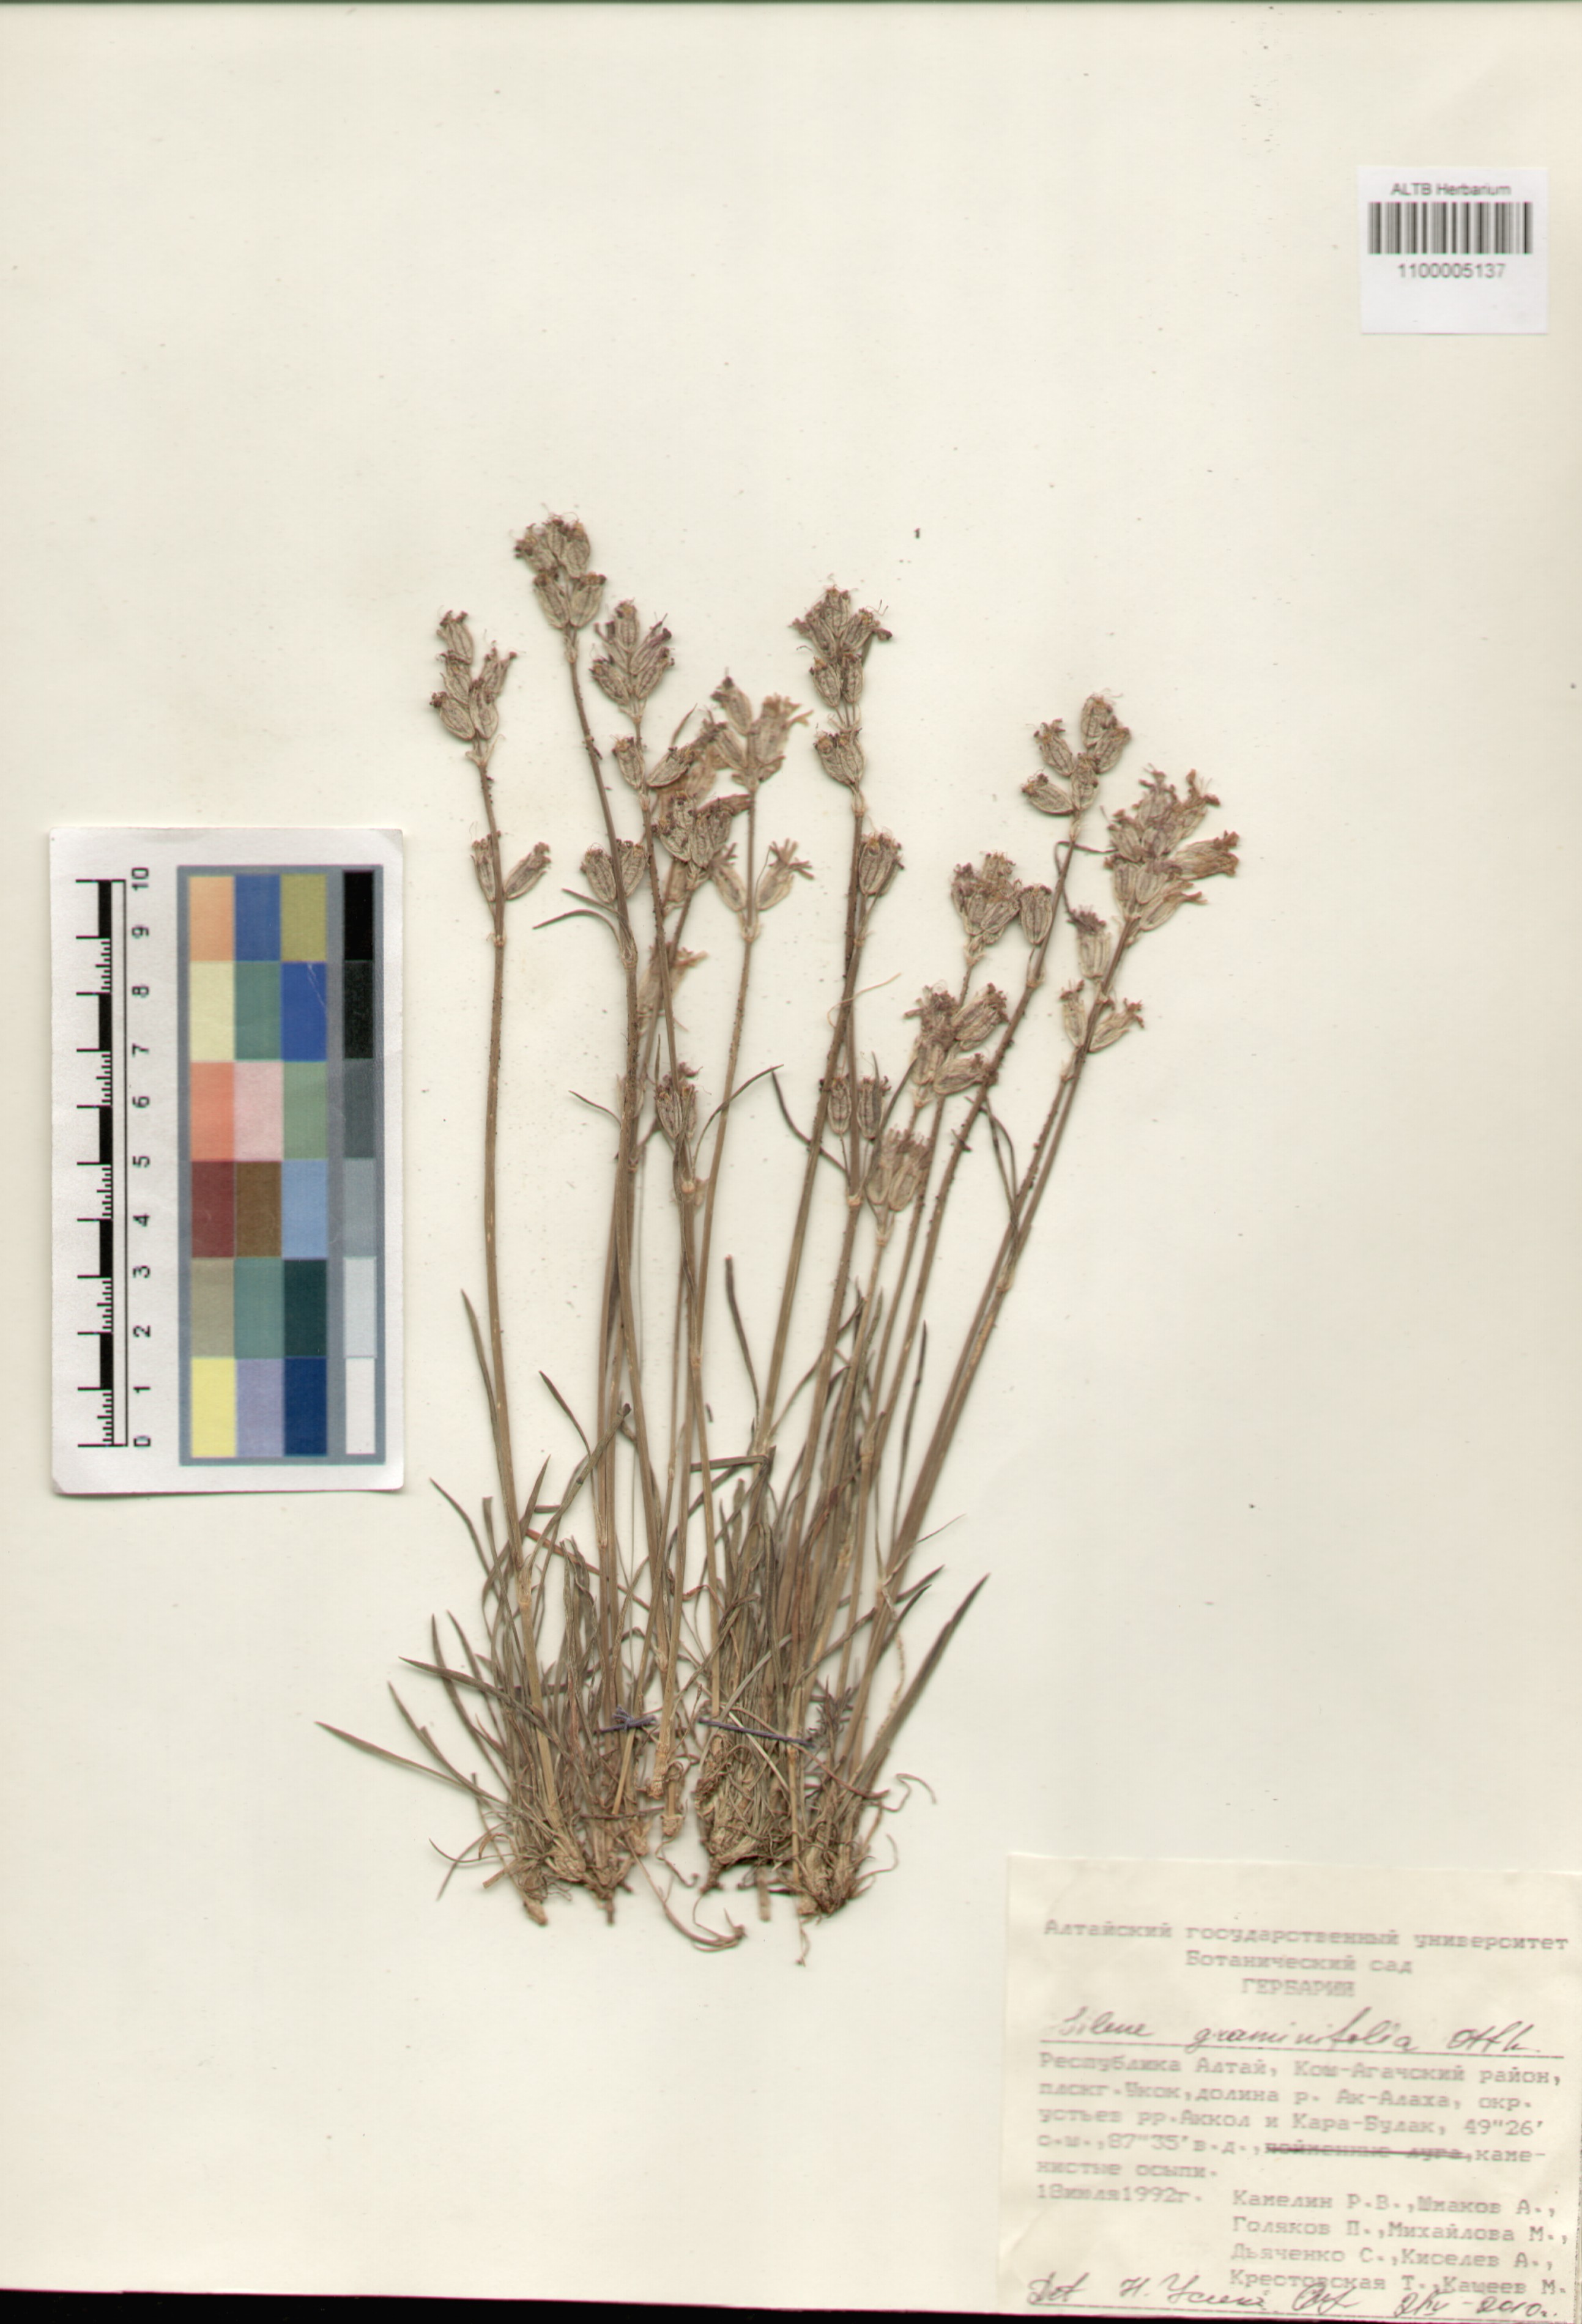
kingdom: Plantae
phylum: Tracheophyta
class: Magnoliopsida
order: Caryophyllales
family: Caryophyllaceae
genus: Silene
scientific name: Silene graminifolia
